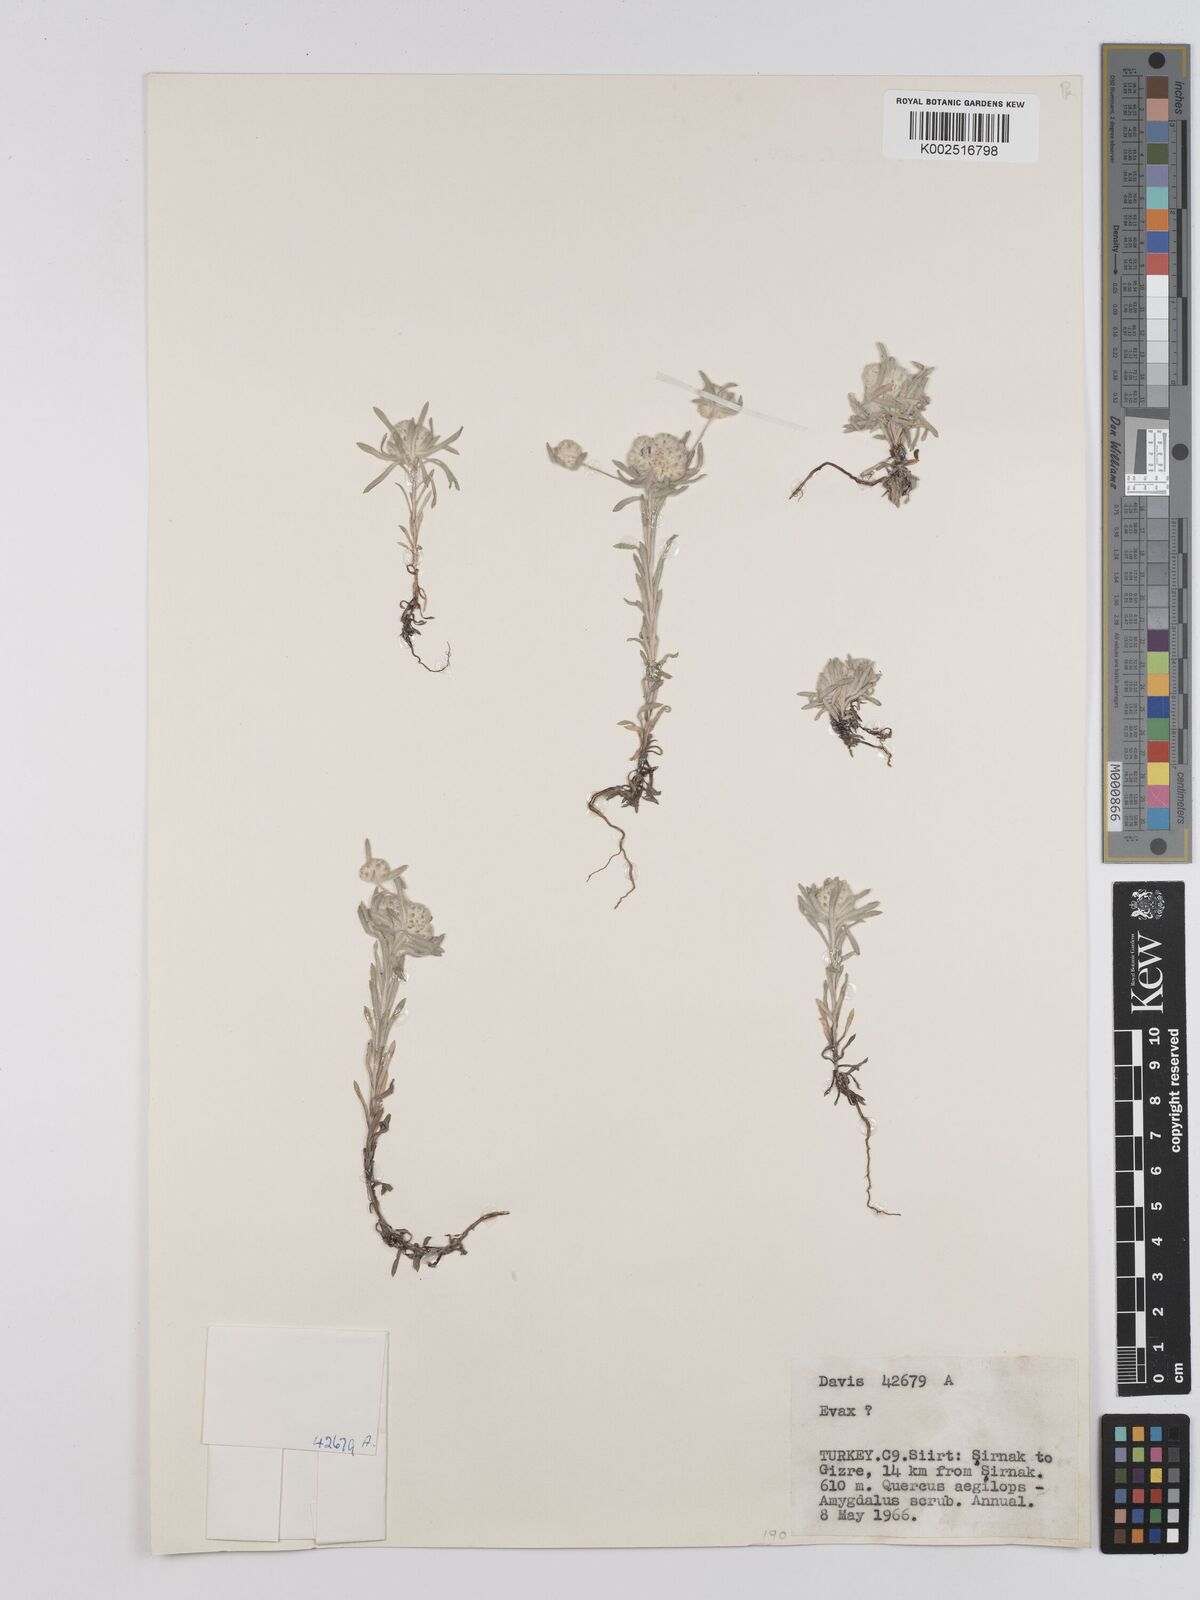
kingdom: Plantae
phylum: Tracheophyta
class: Magnoliopsida
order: Asterales
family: Asteraceae
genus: Filago
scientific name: Filago
